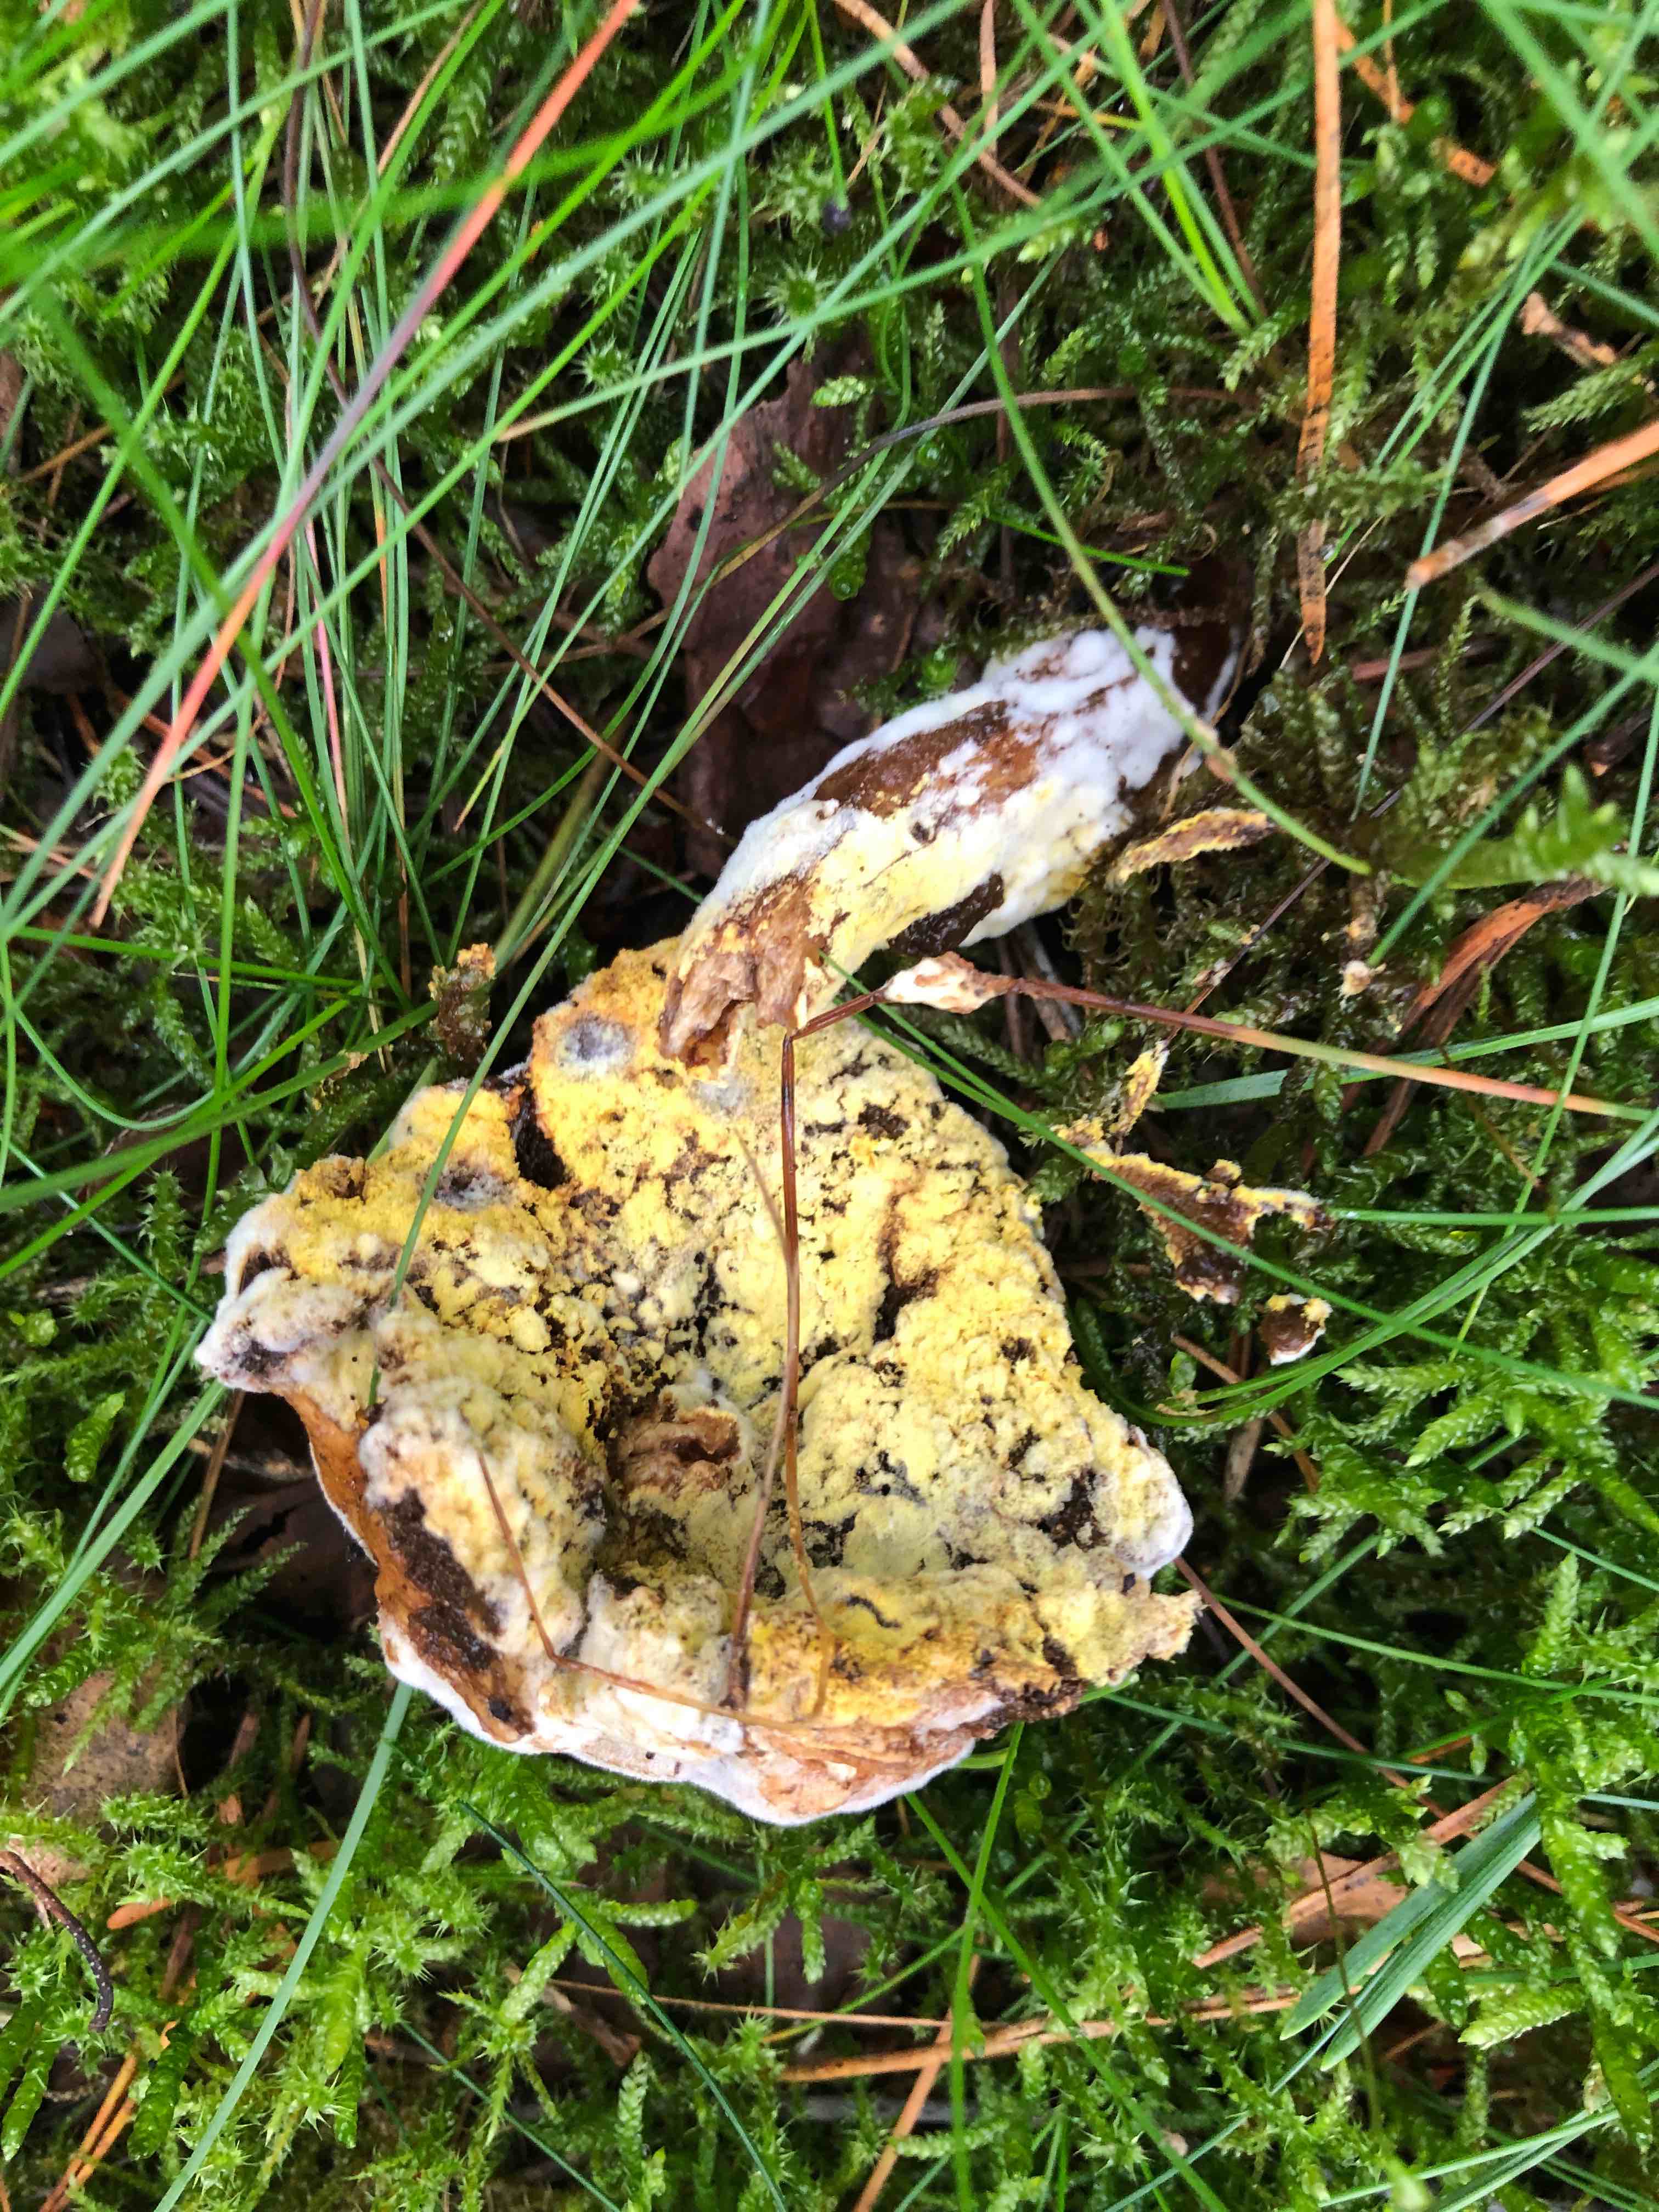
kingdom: Fungi
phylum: Ascomycota
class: Sordariomycetes
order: Hypocreales
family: Hypocreaceae
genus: Hypomyces
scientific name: Hypomyces
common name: snylteskorpe
